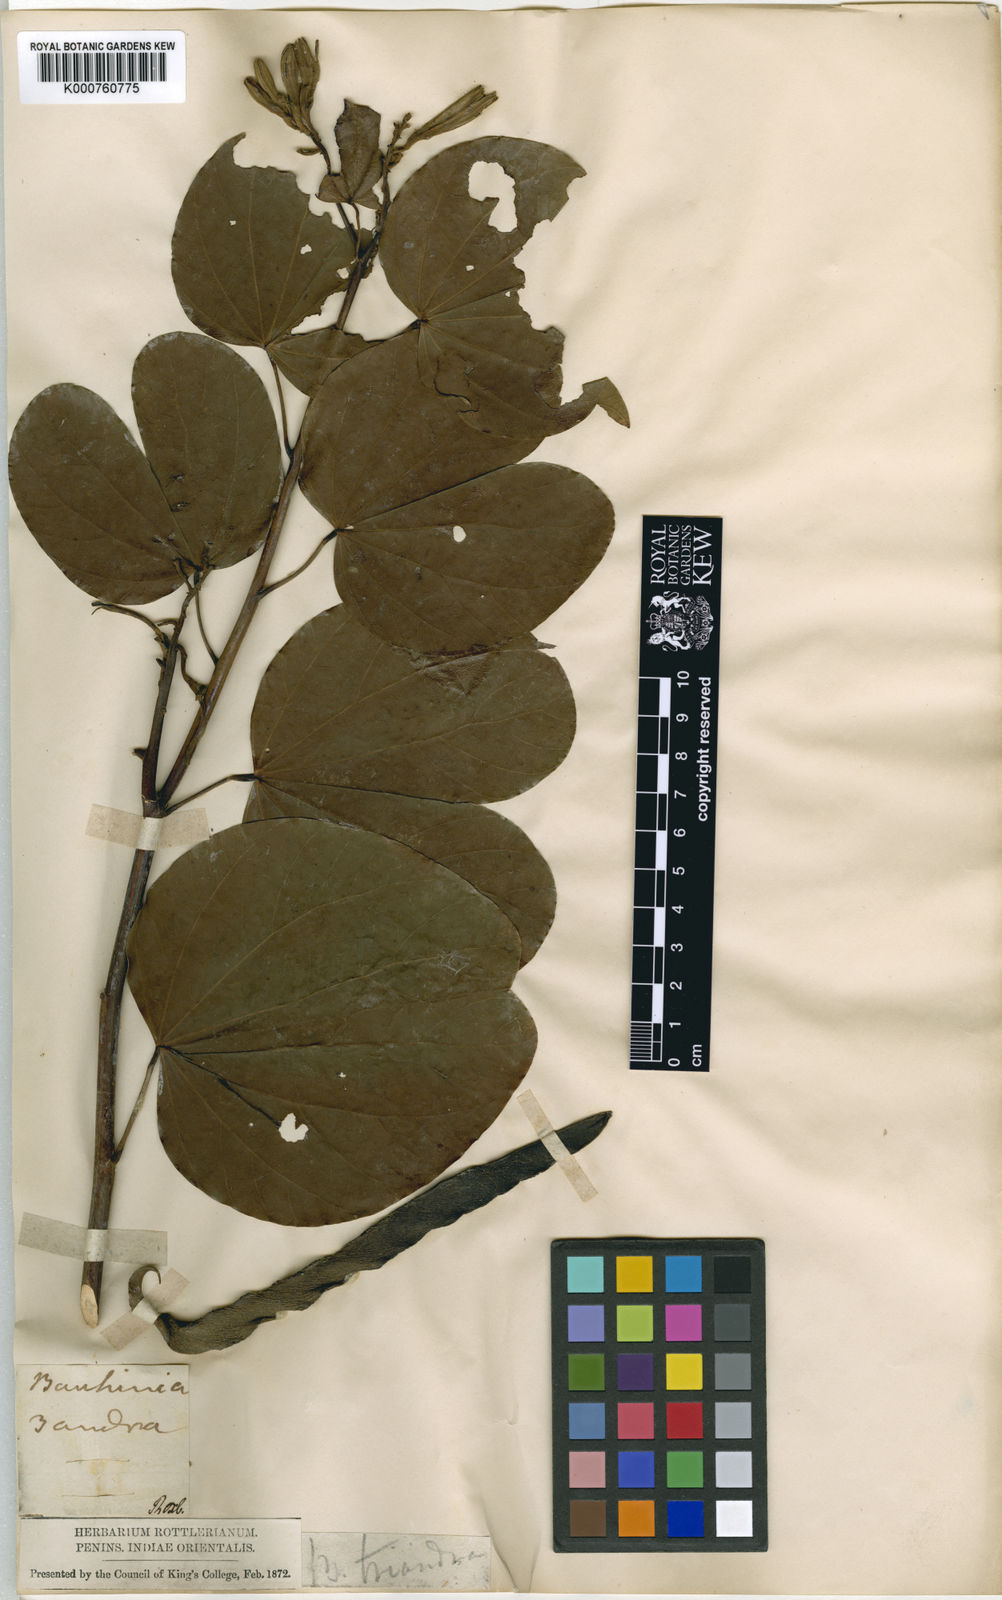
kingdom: Plantae
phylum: Tracheophyta
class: Magnoliopsida
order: Fabales
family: Fabaceae
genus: Bauhinia
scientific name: Bauhinia
